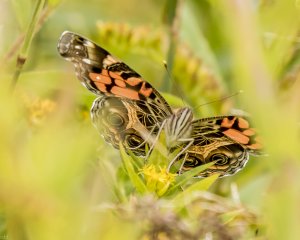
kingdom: Animalia
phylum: Arthropoda
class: Insecta
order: Lepidoptera
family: Nymphalidae
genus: Vanessa
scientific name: Vanessa virginiensis
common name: American Lady
